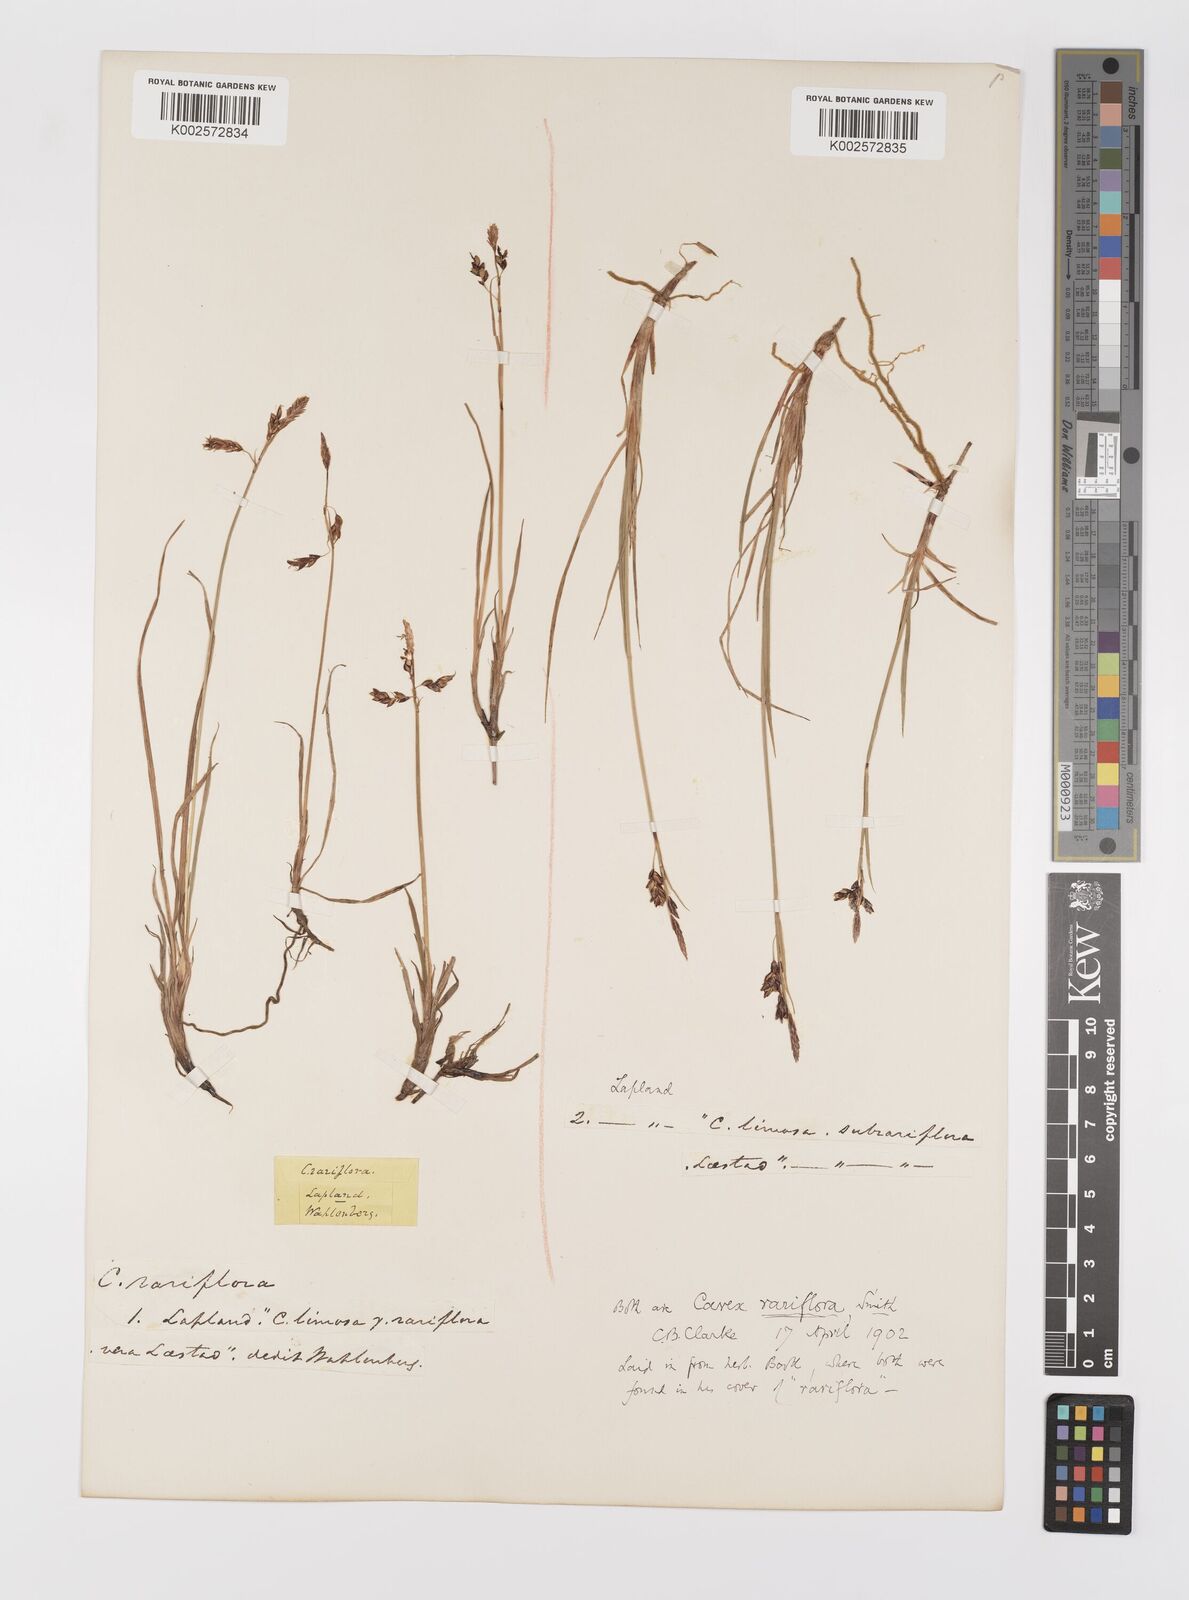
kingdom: Plantae
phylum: Tracheophyta
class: Liliopsida
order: Poales
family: Cyperaceae
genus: Carex
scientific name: Carex rariflora
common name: Loose-flowered alpine sedge
